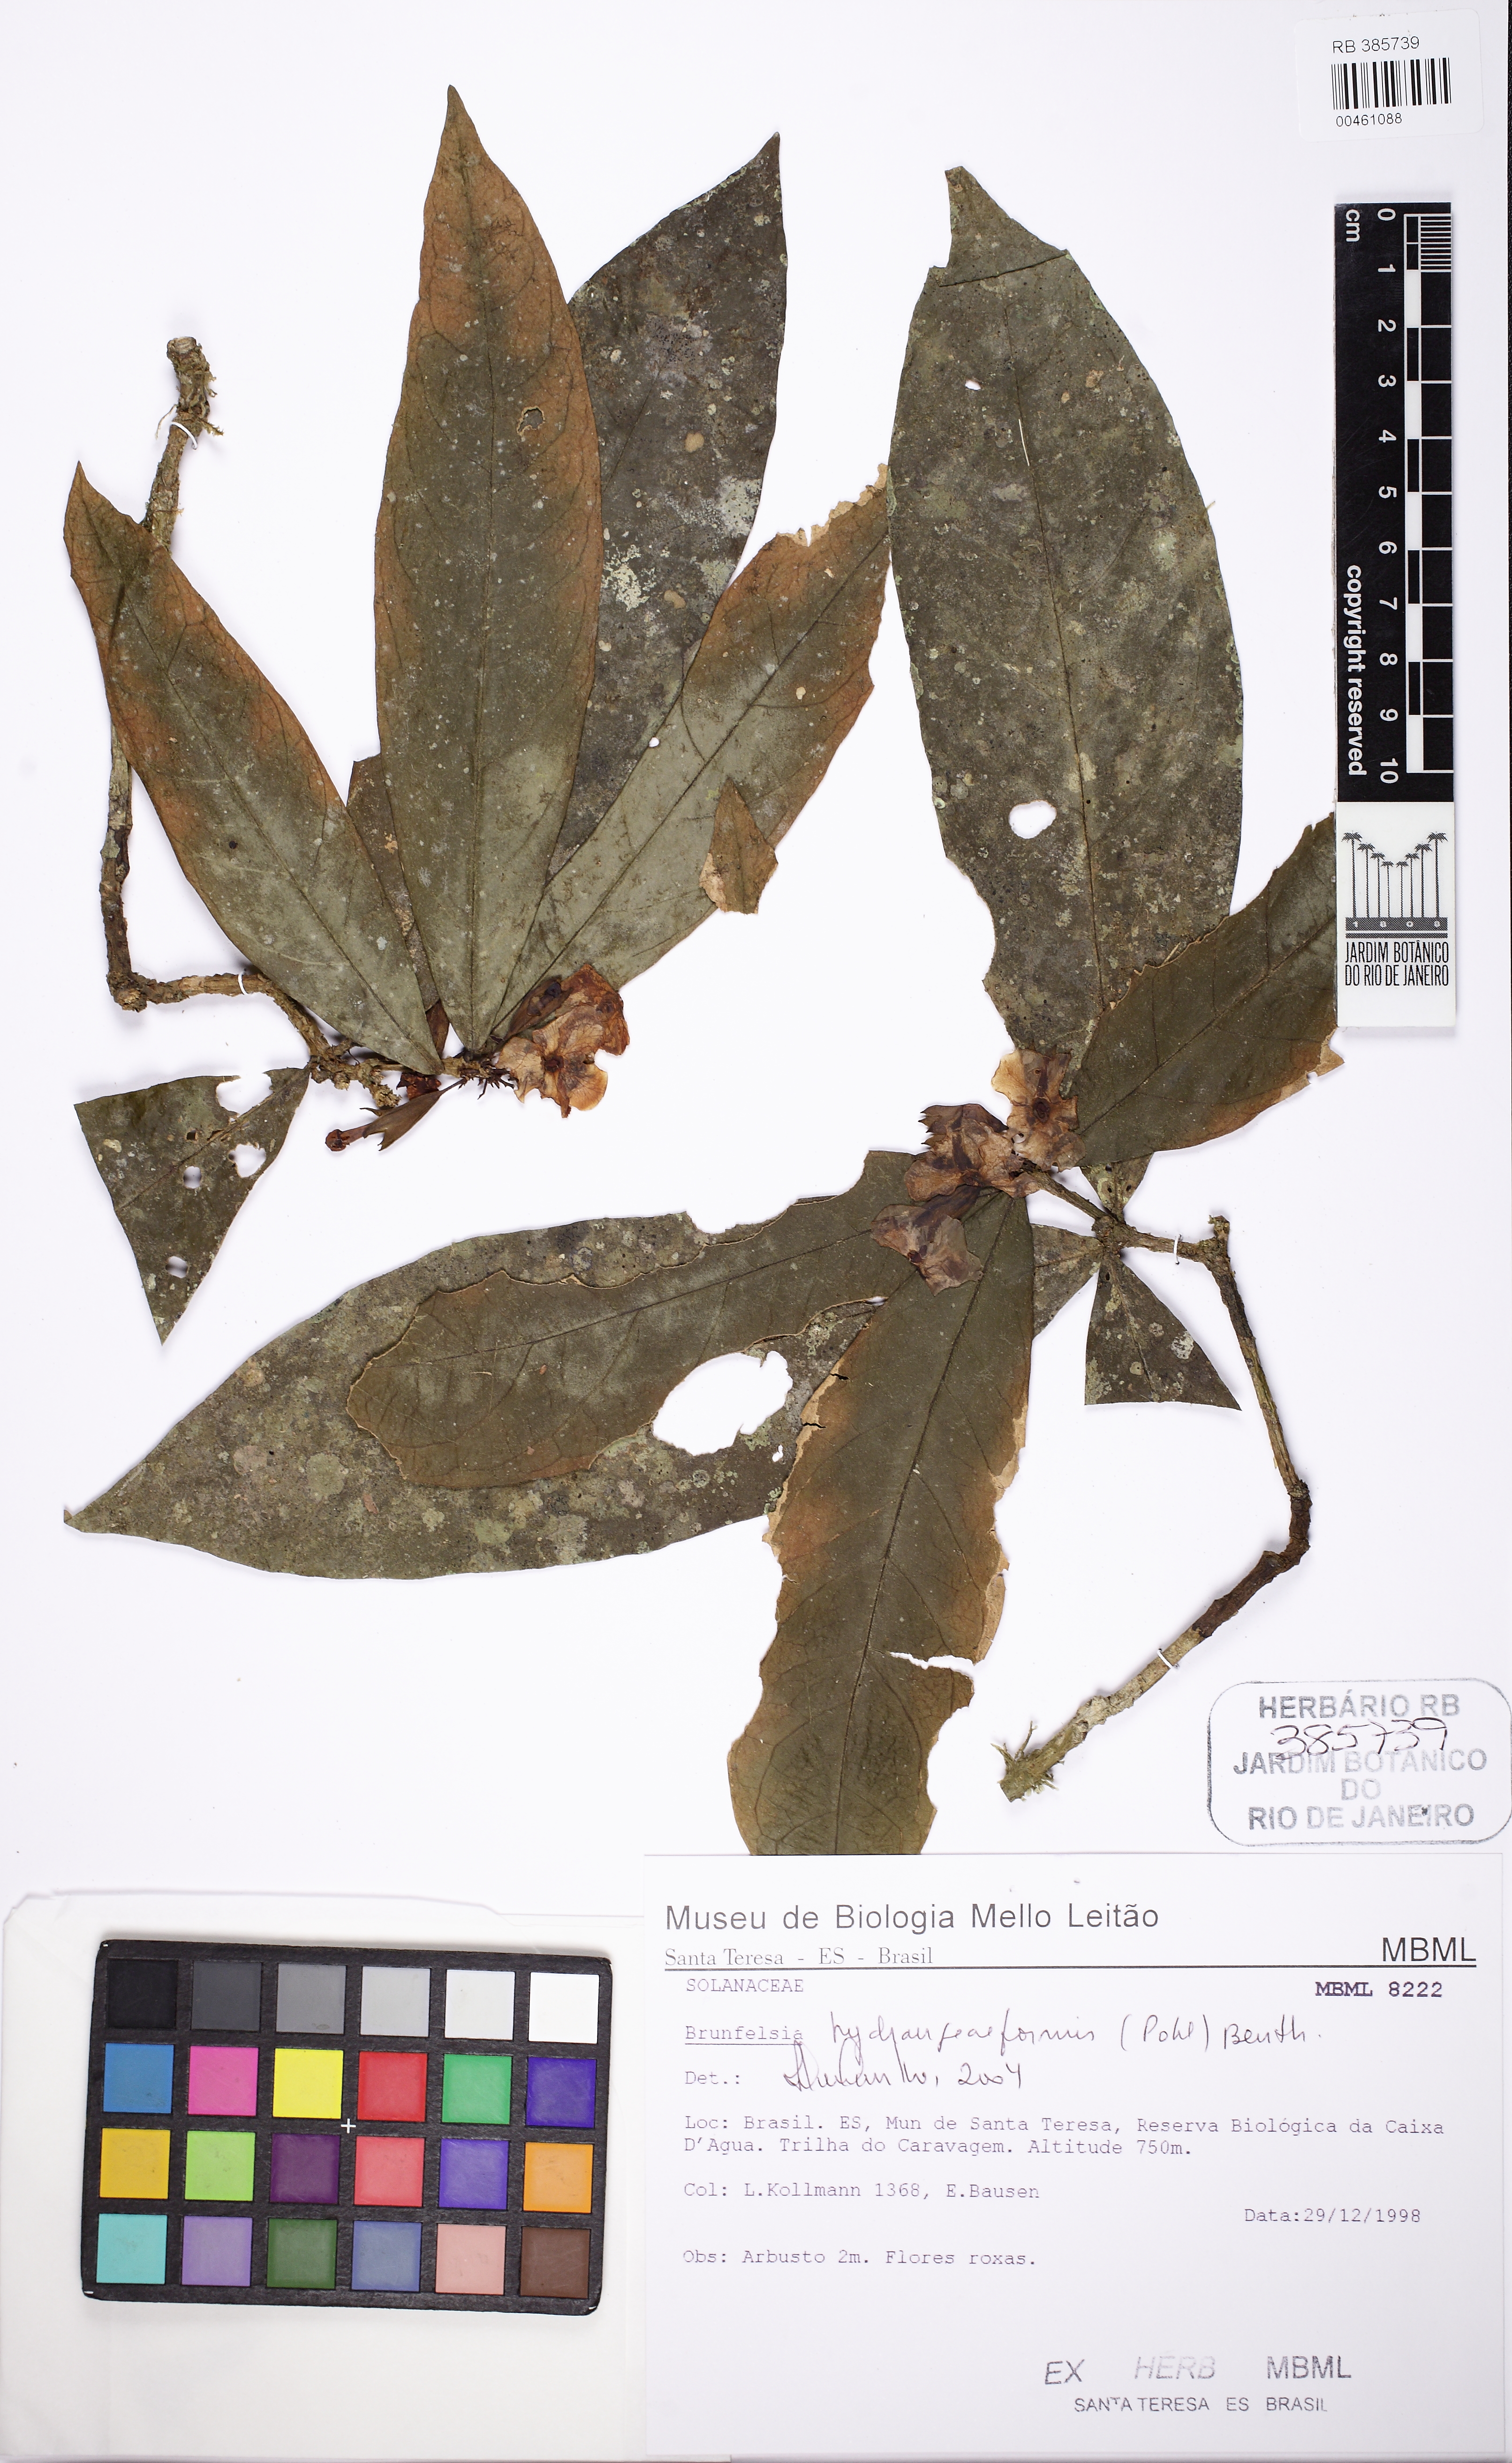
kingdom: Plantae
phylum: Tracheophyta
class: Magnoliopsida
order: Solanales
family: Solanaceae
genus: Brunfelsia
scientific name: Brunfelsia hydrangeiformis
